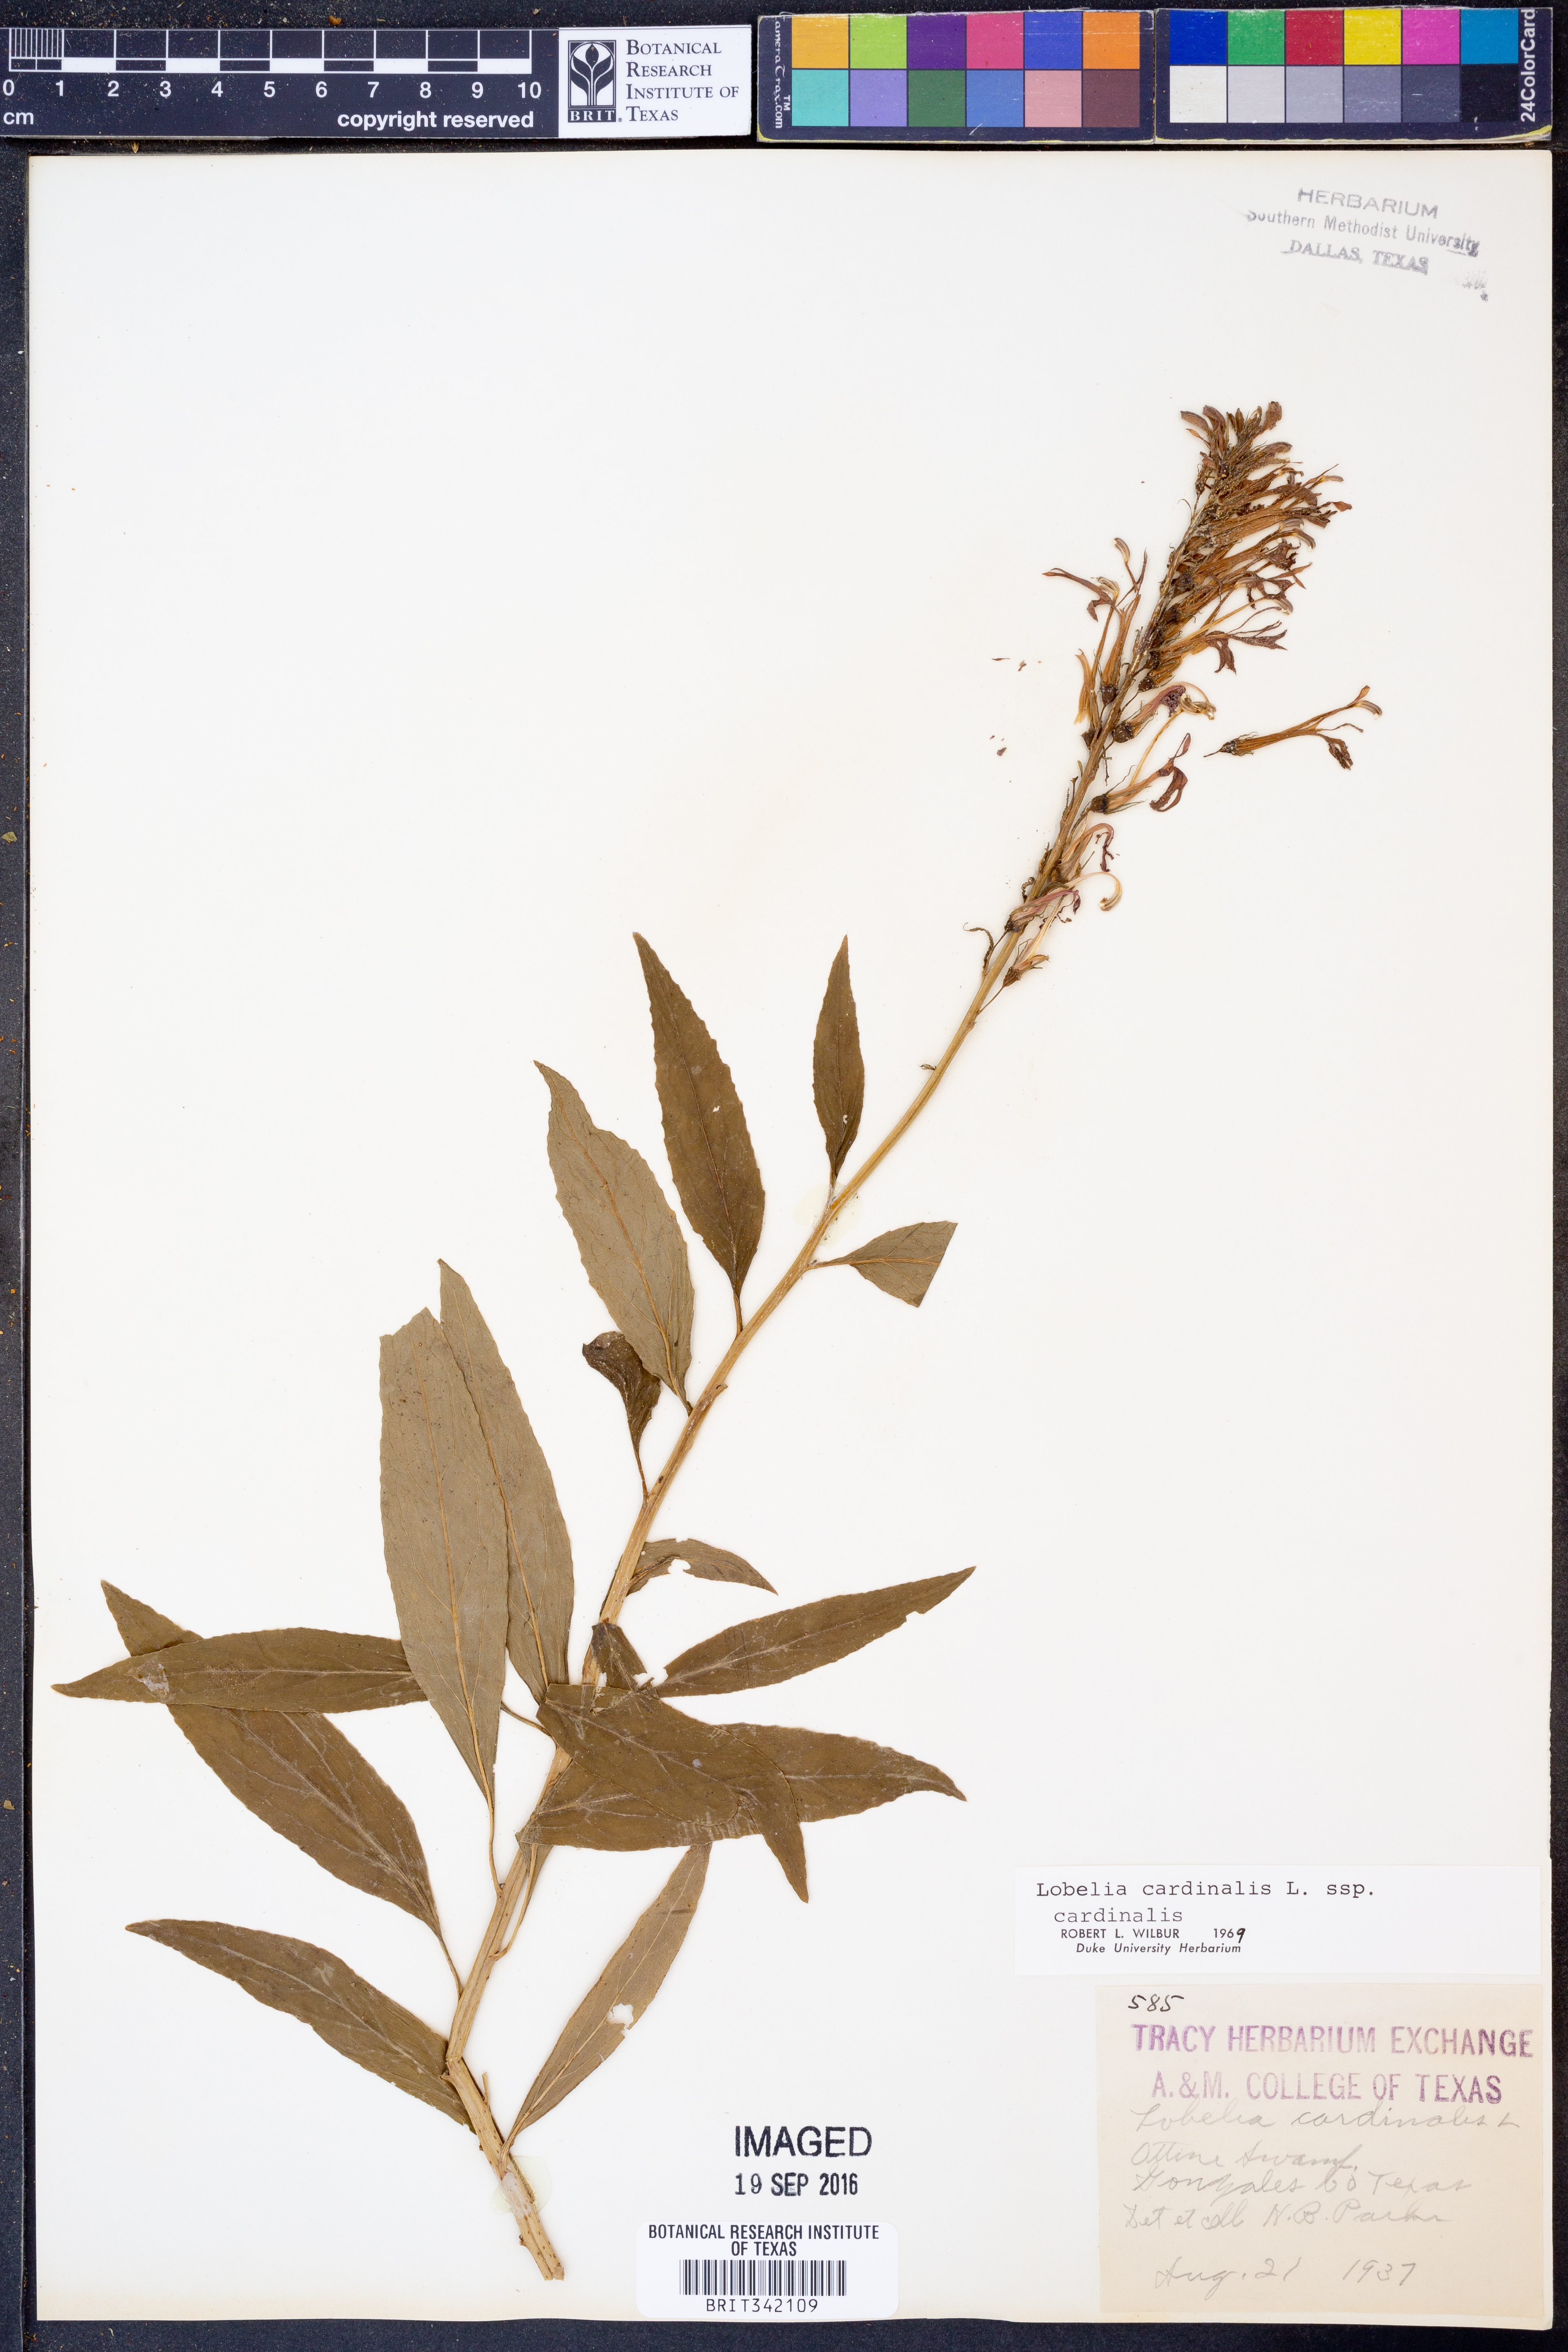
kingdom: Plantae
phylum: Tracheophyta
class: Magnoliopsida
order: Asterales
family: Campanulaceae
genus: Lobelia
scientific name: Lobelia cardinalis
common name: Cardinal flower
